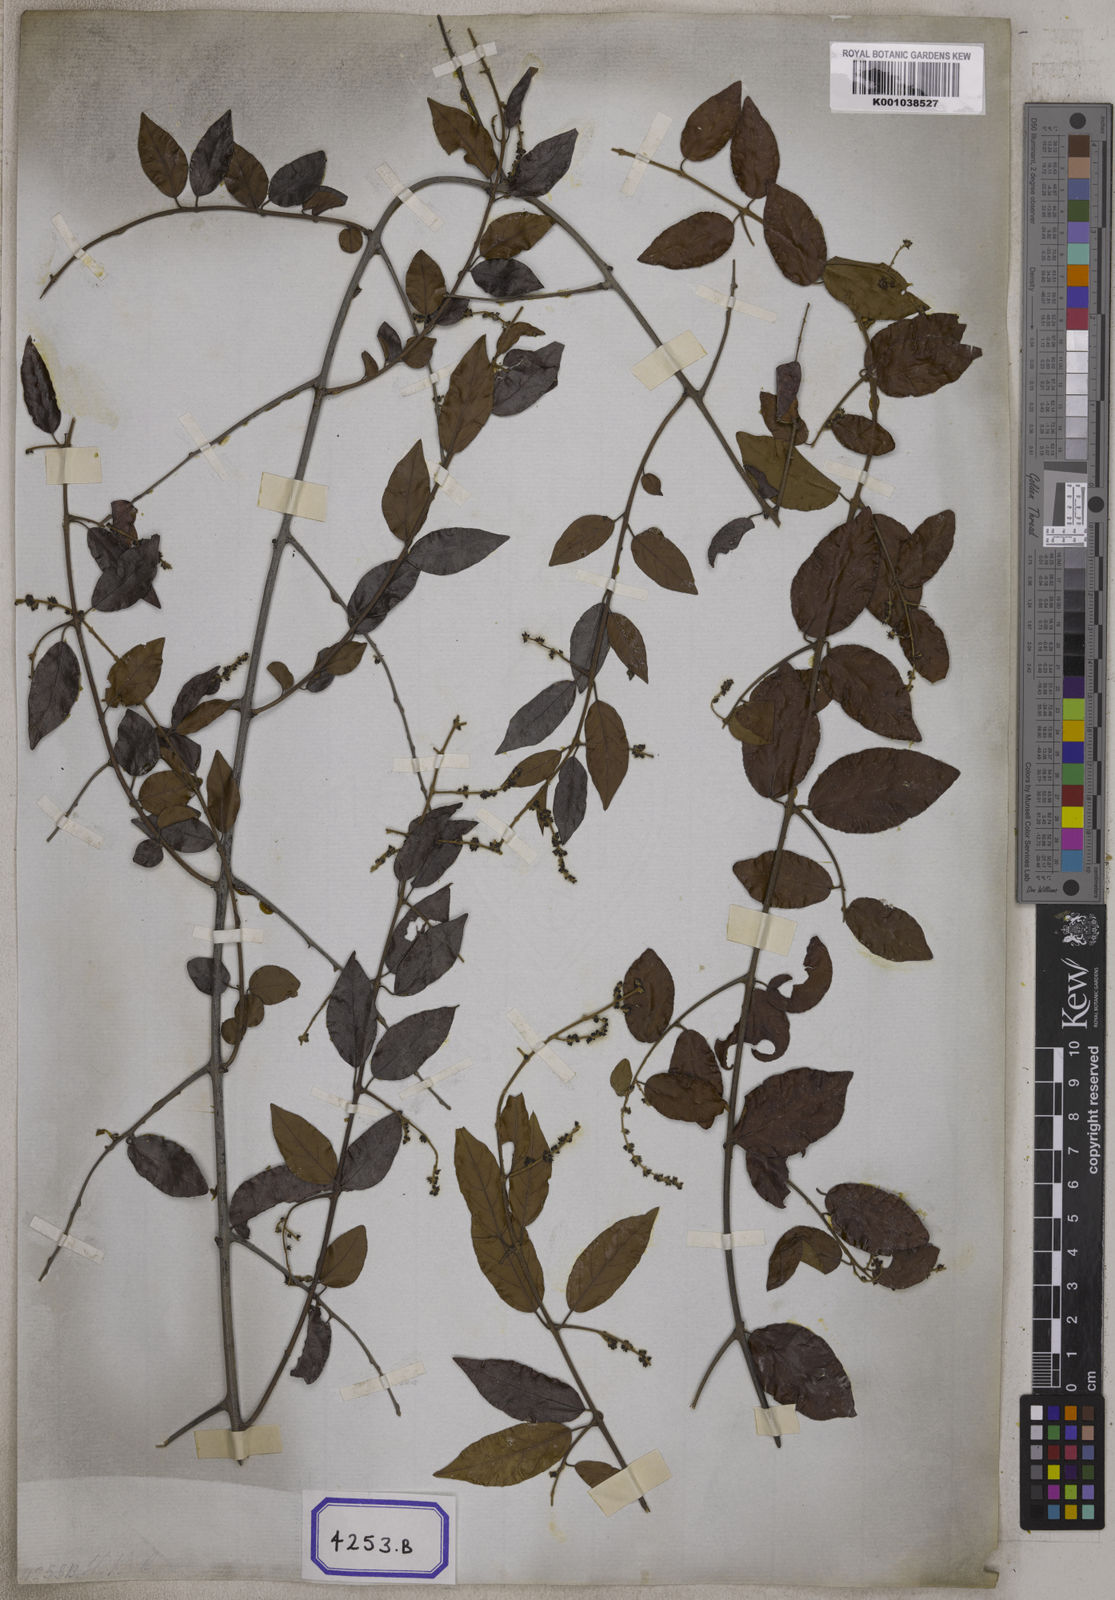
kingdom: Plantae
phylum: Tracheophyta
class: Magnoliopsida
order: Rosales
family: Rhamnaceae
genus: Sageretia
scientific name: Sageretia hamosa
